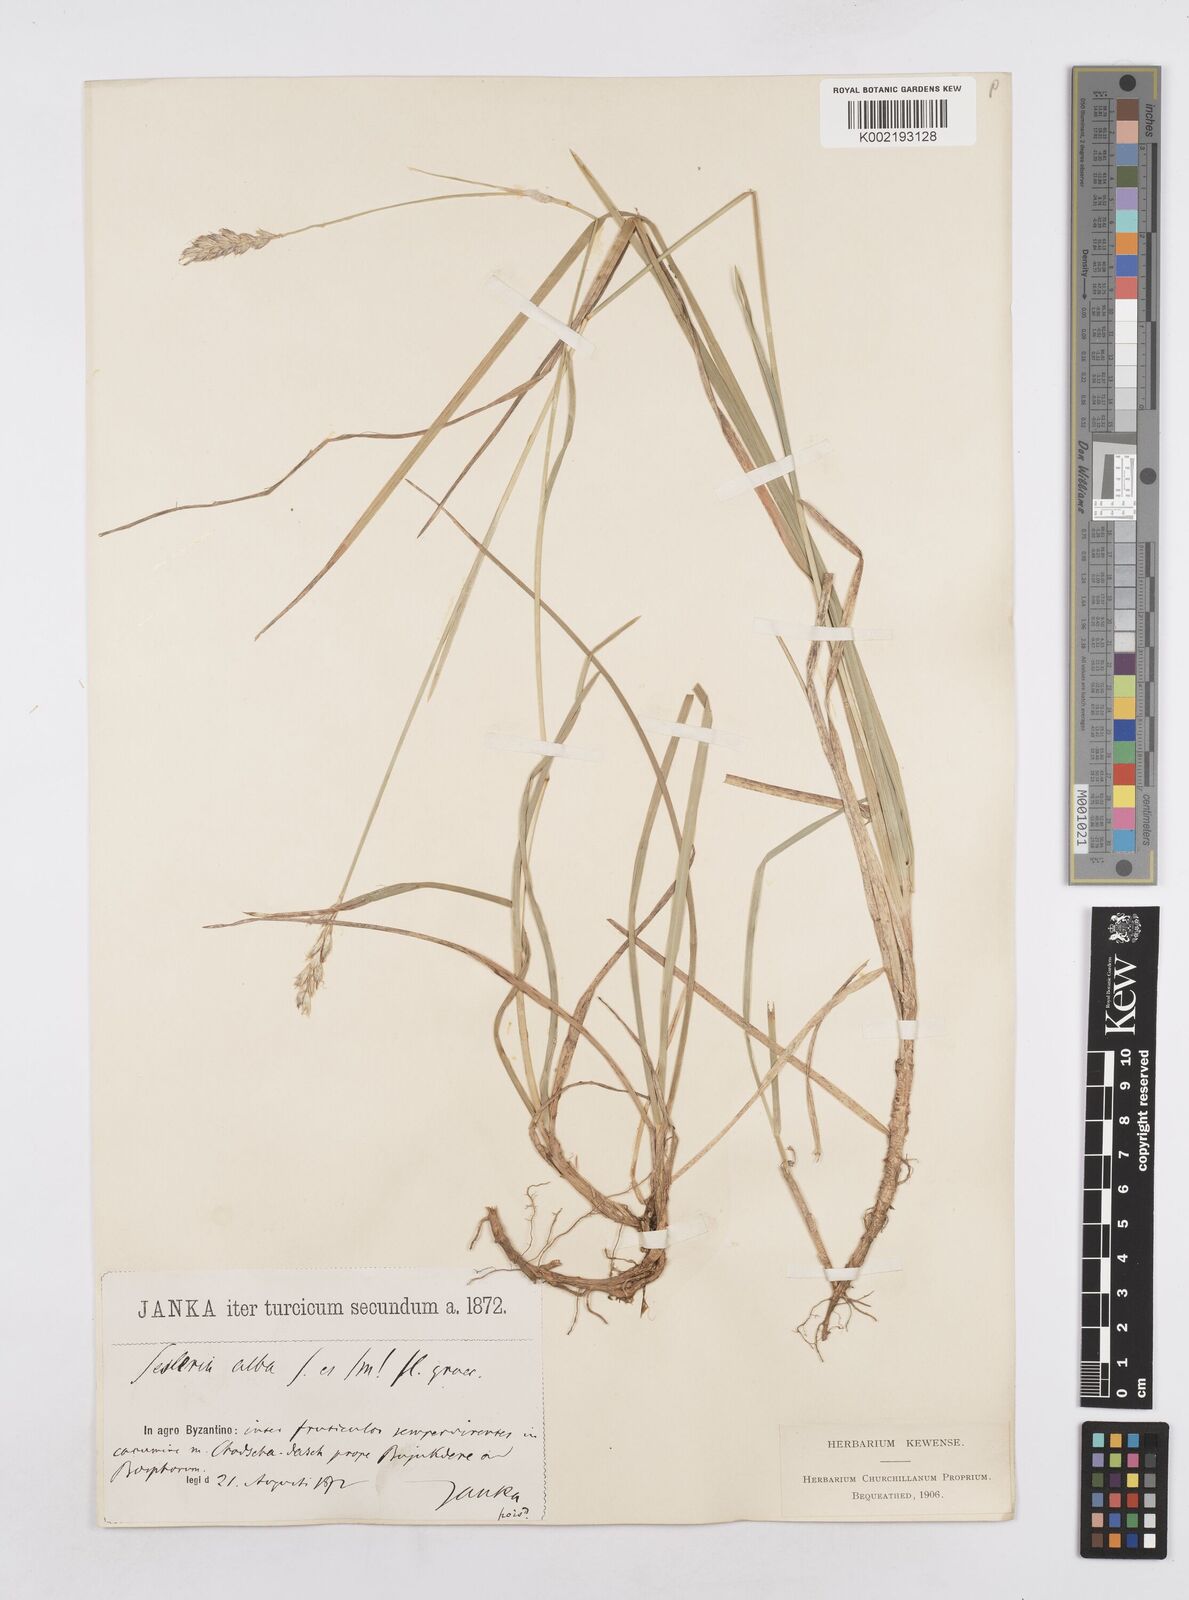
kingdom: Plantae
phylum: Tracheophyta
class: Liliopsida
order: Poales
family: Poaceae
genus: Sesleria
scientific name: Sesleria alba
